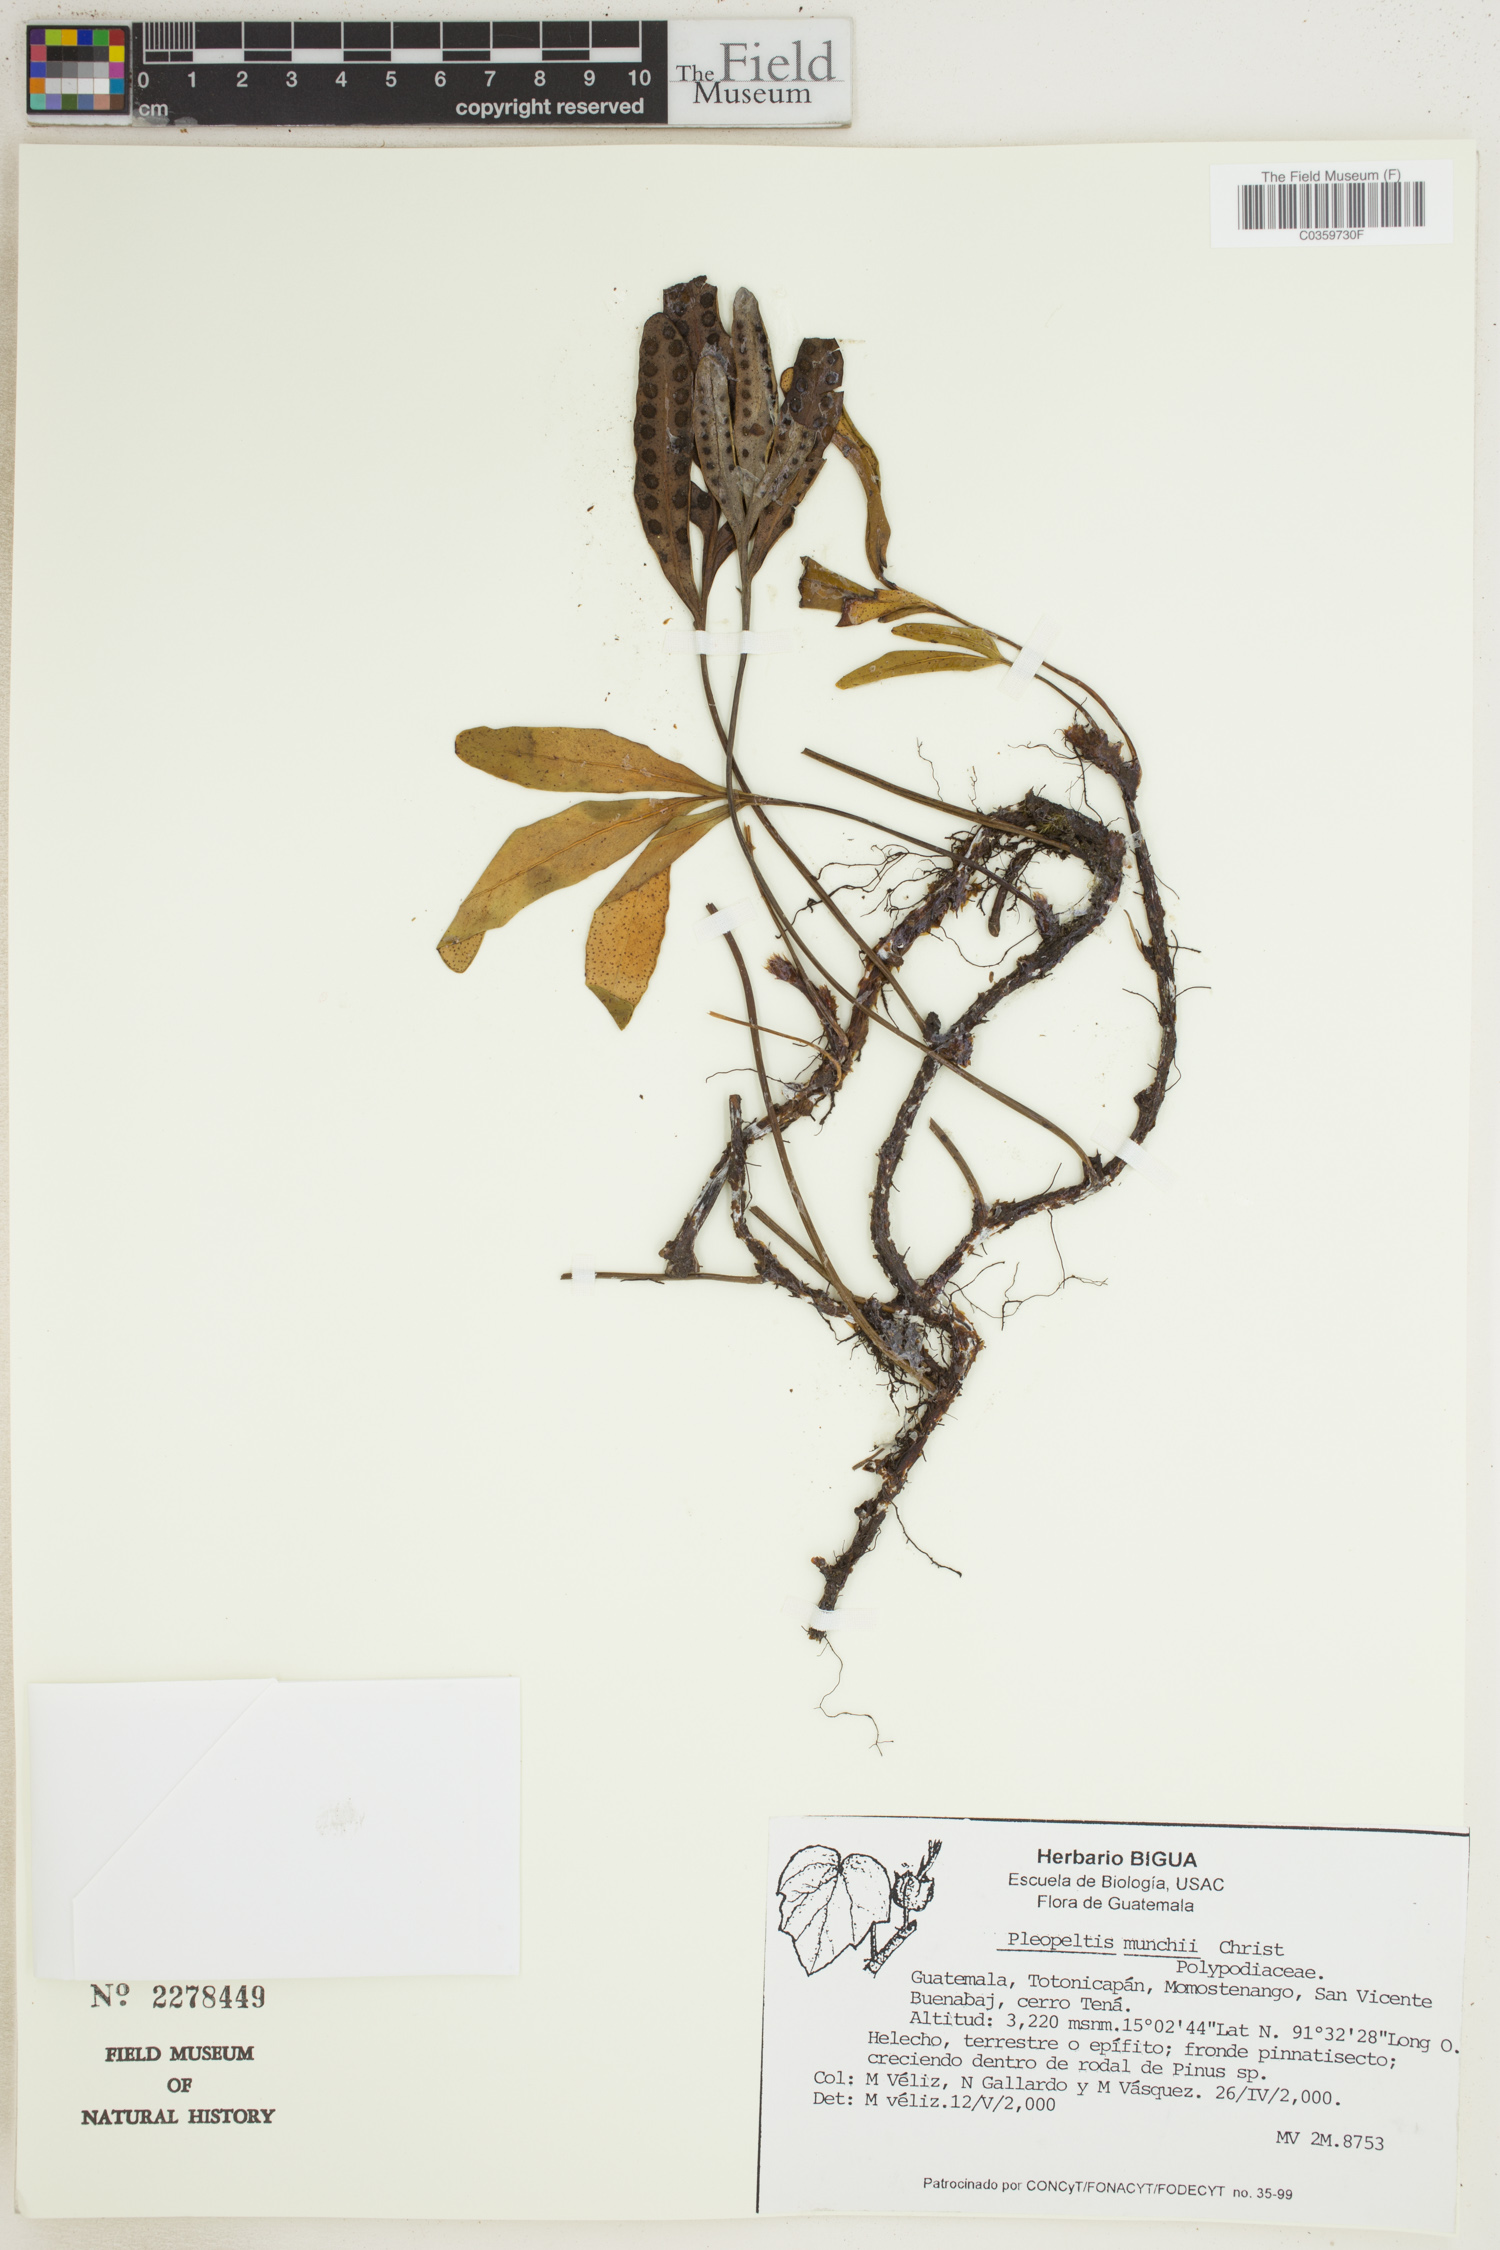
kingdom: Plantae
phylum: Tracheophyta
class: Polypodiopsida
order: Polypodiales
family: Polypodiaceae
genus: Pleopeltis
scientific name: Pleopeltis muenchii
